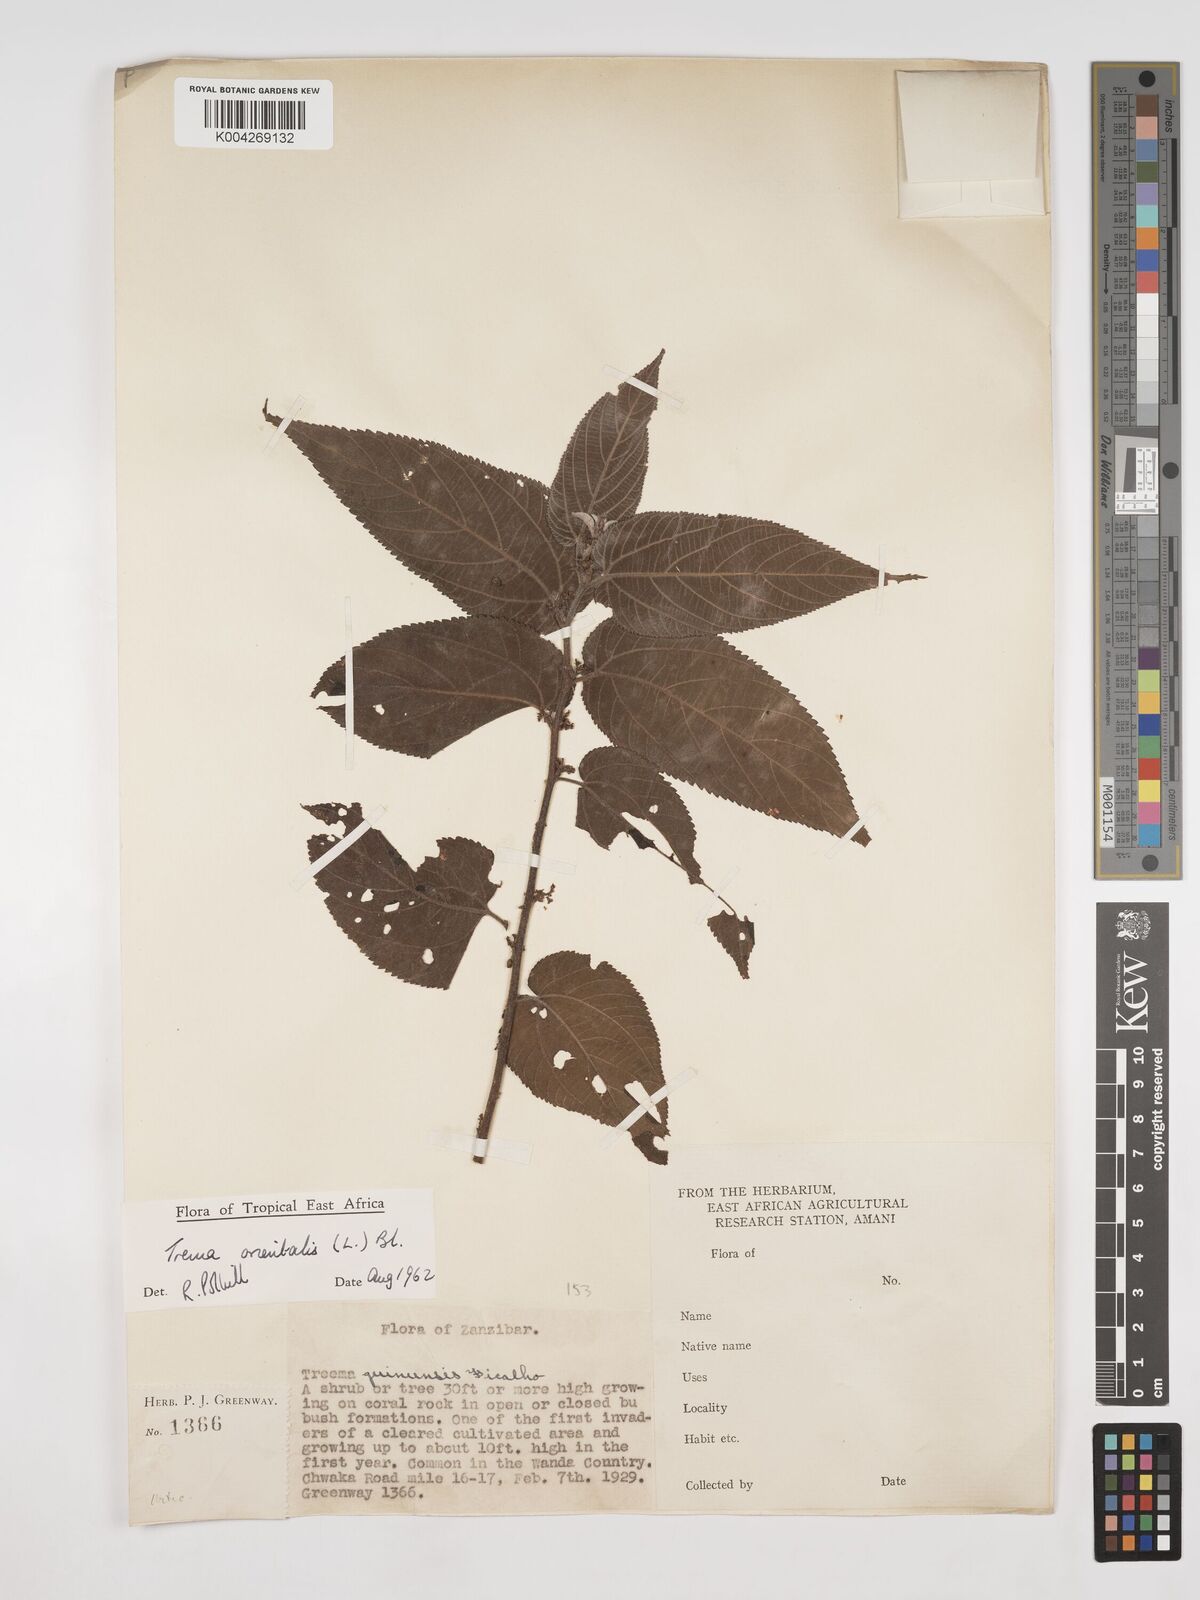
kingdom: Plantae
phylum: Tracheophyta
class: Magnoliopsida
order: Rosales
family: Cannabaceae
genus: Trema
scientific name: Trema orientale
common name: Indian charcoal tree
